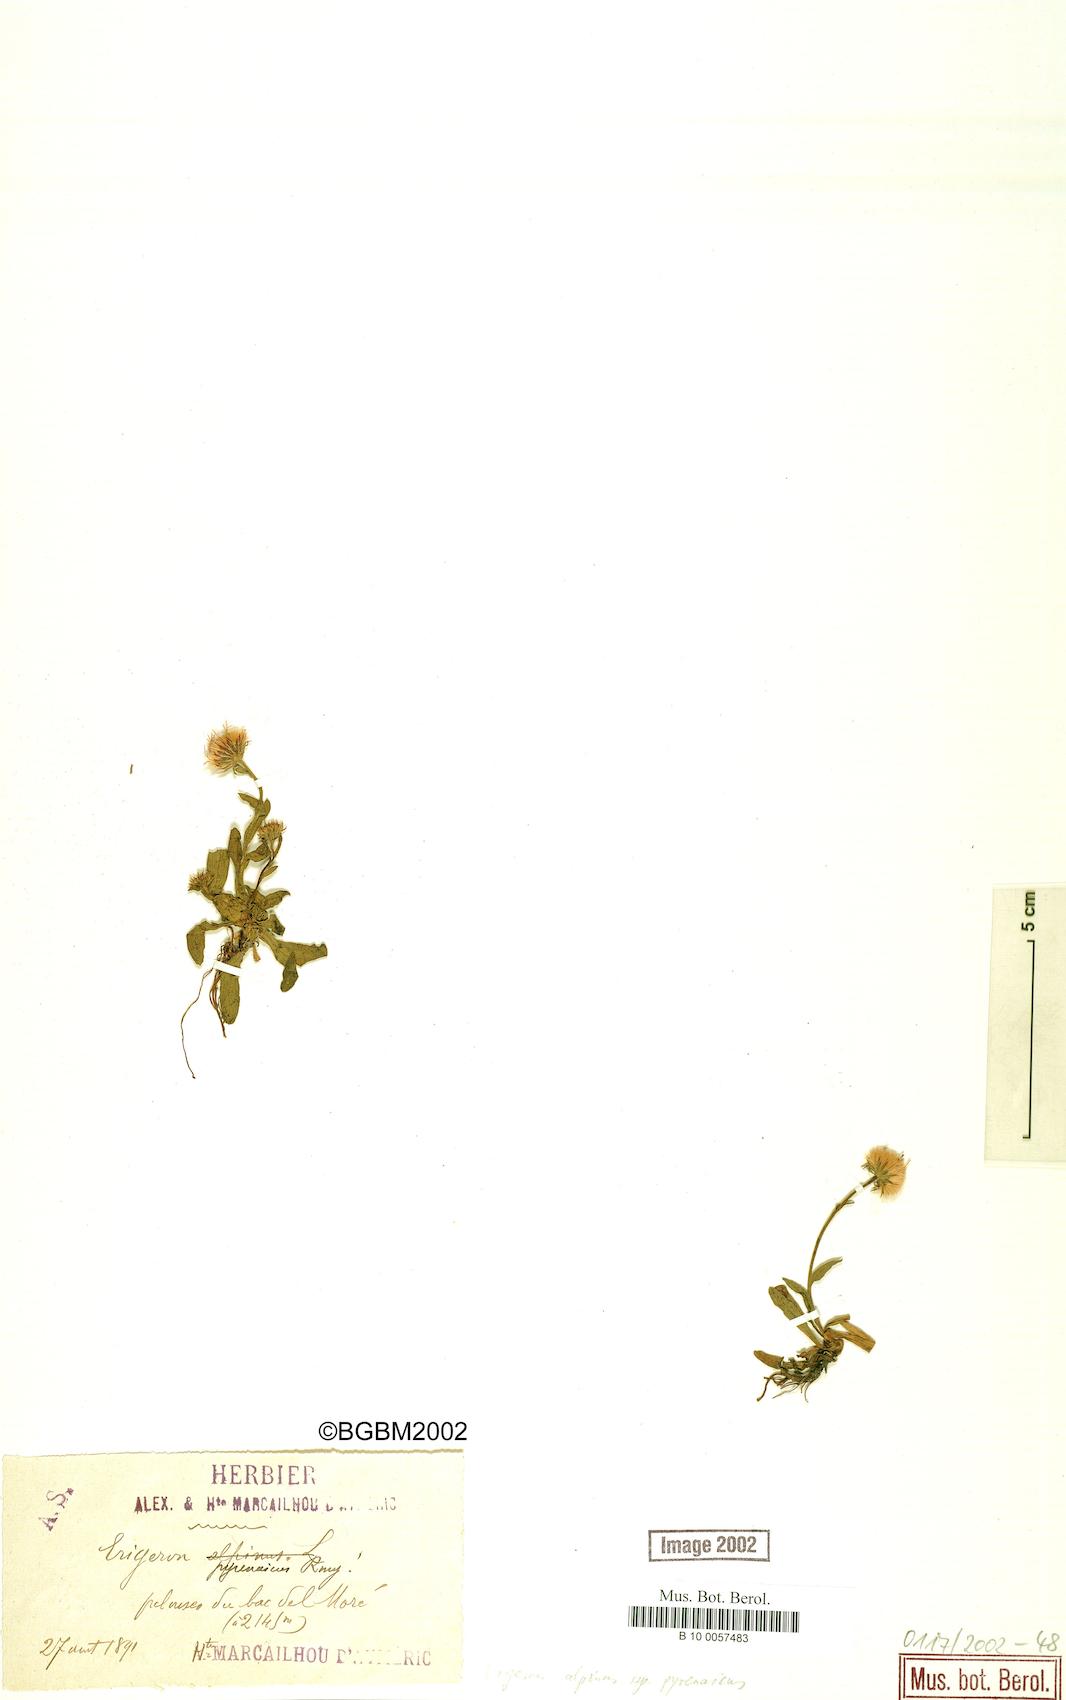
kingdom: Plantae
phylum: Tracheophyta
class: Magnoliopsida
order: Asterales
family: Asteraceae
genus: Erigeron
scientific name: Erigeron uniflorus
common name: Northern daisy
